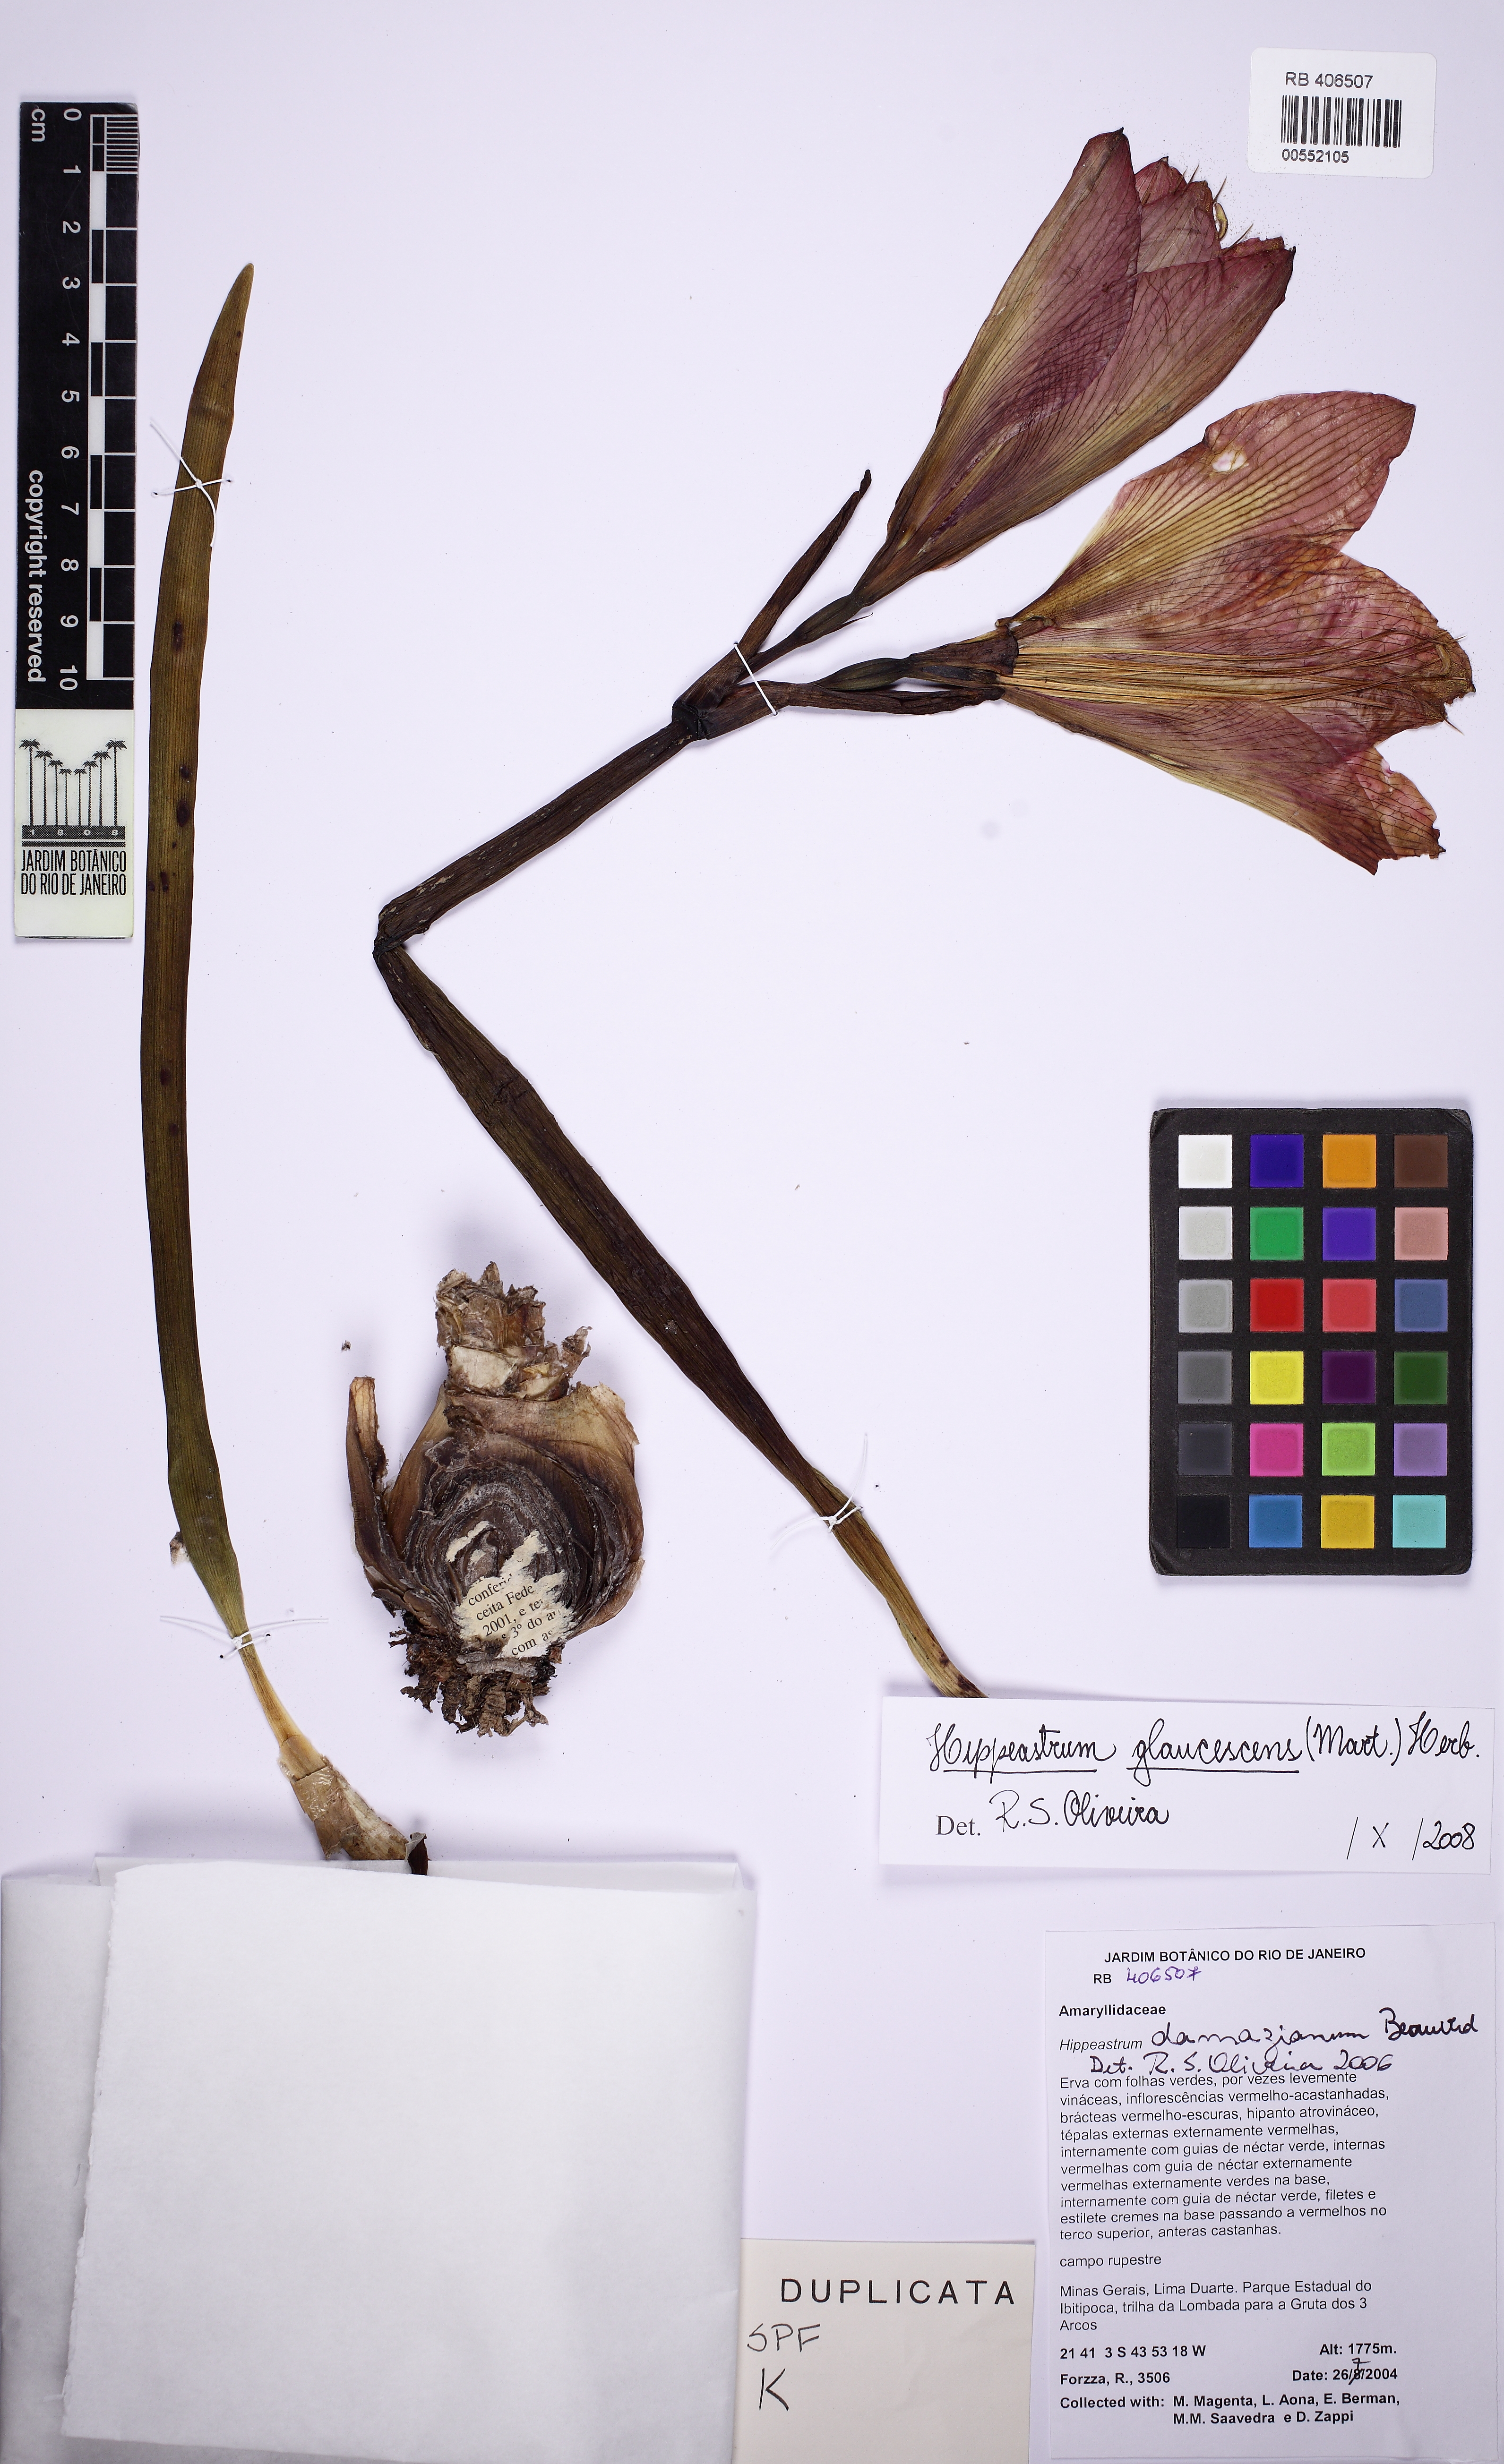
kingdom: Plantae
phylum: Tracheophyta
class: Liliopsida
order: Asparagales
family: Amaryllidaceae
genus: Hippeastrum
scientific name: Hippeastrum glaucescens
